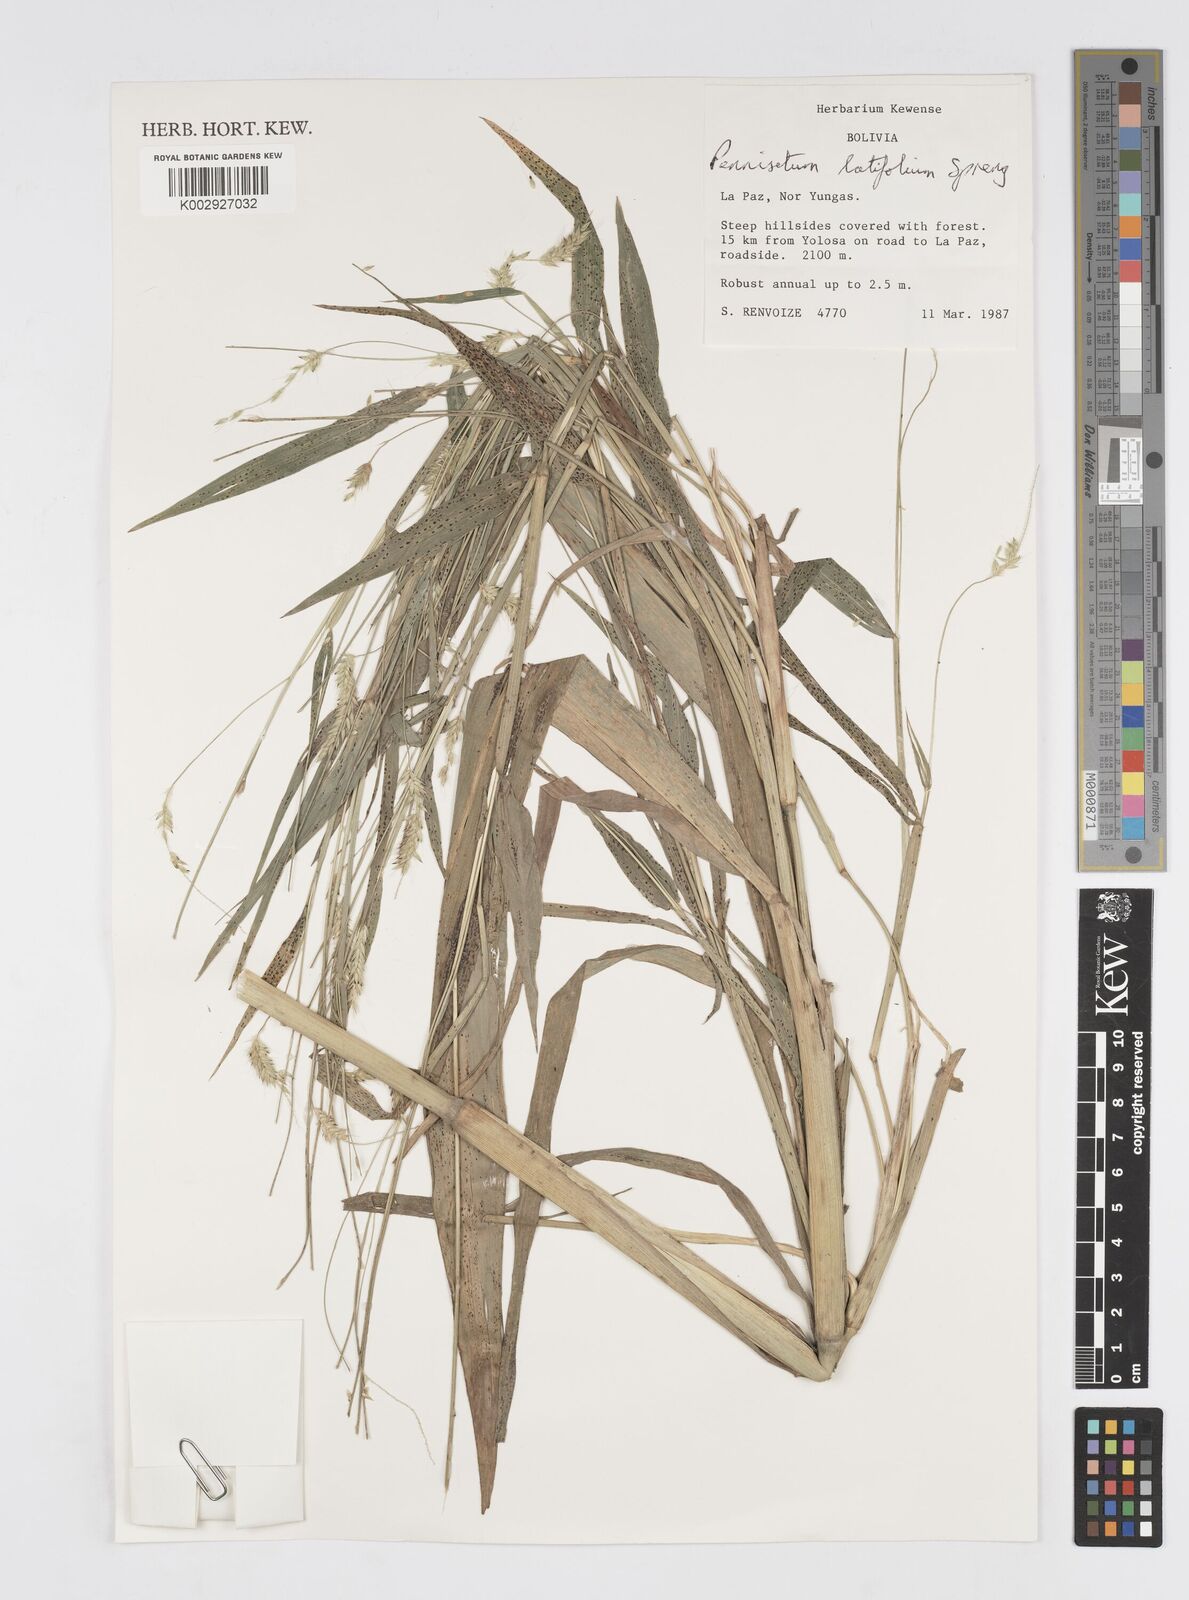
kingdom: Plantae
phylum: Tracheophyta
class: Liliopsida
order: Poales
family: Poaceae
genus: Cenchrus
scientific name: Cenchrus latifolius
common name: Sandbur
